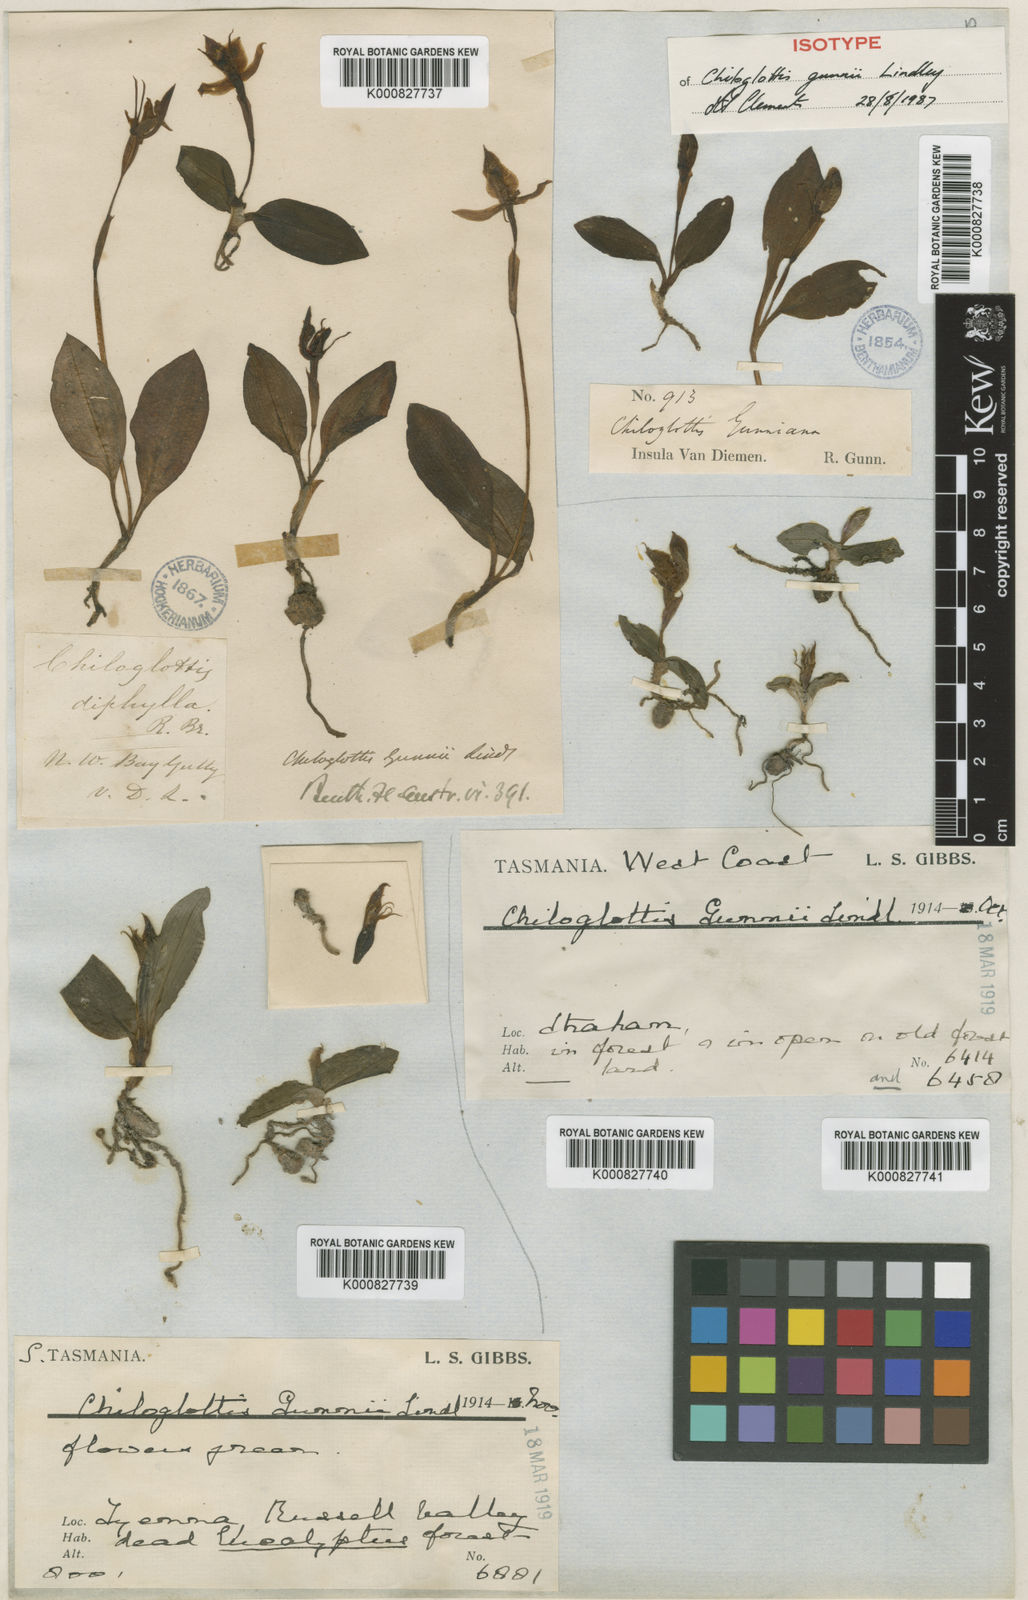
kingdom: Plantae
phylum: Tracheophyta
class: Liliopsida
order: Asparagales
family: Orchidaceae
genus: Chiloglottis
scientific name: Chiloglottis gunnii
